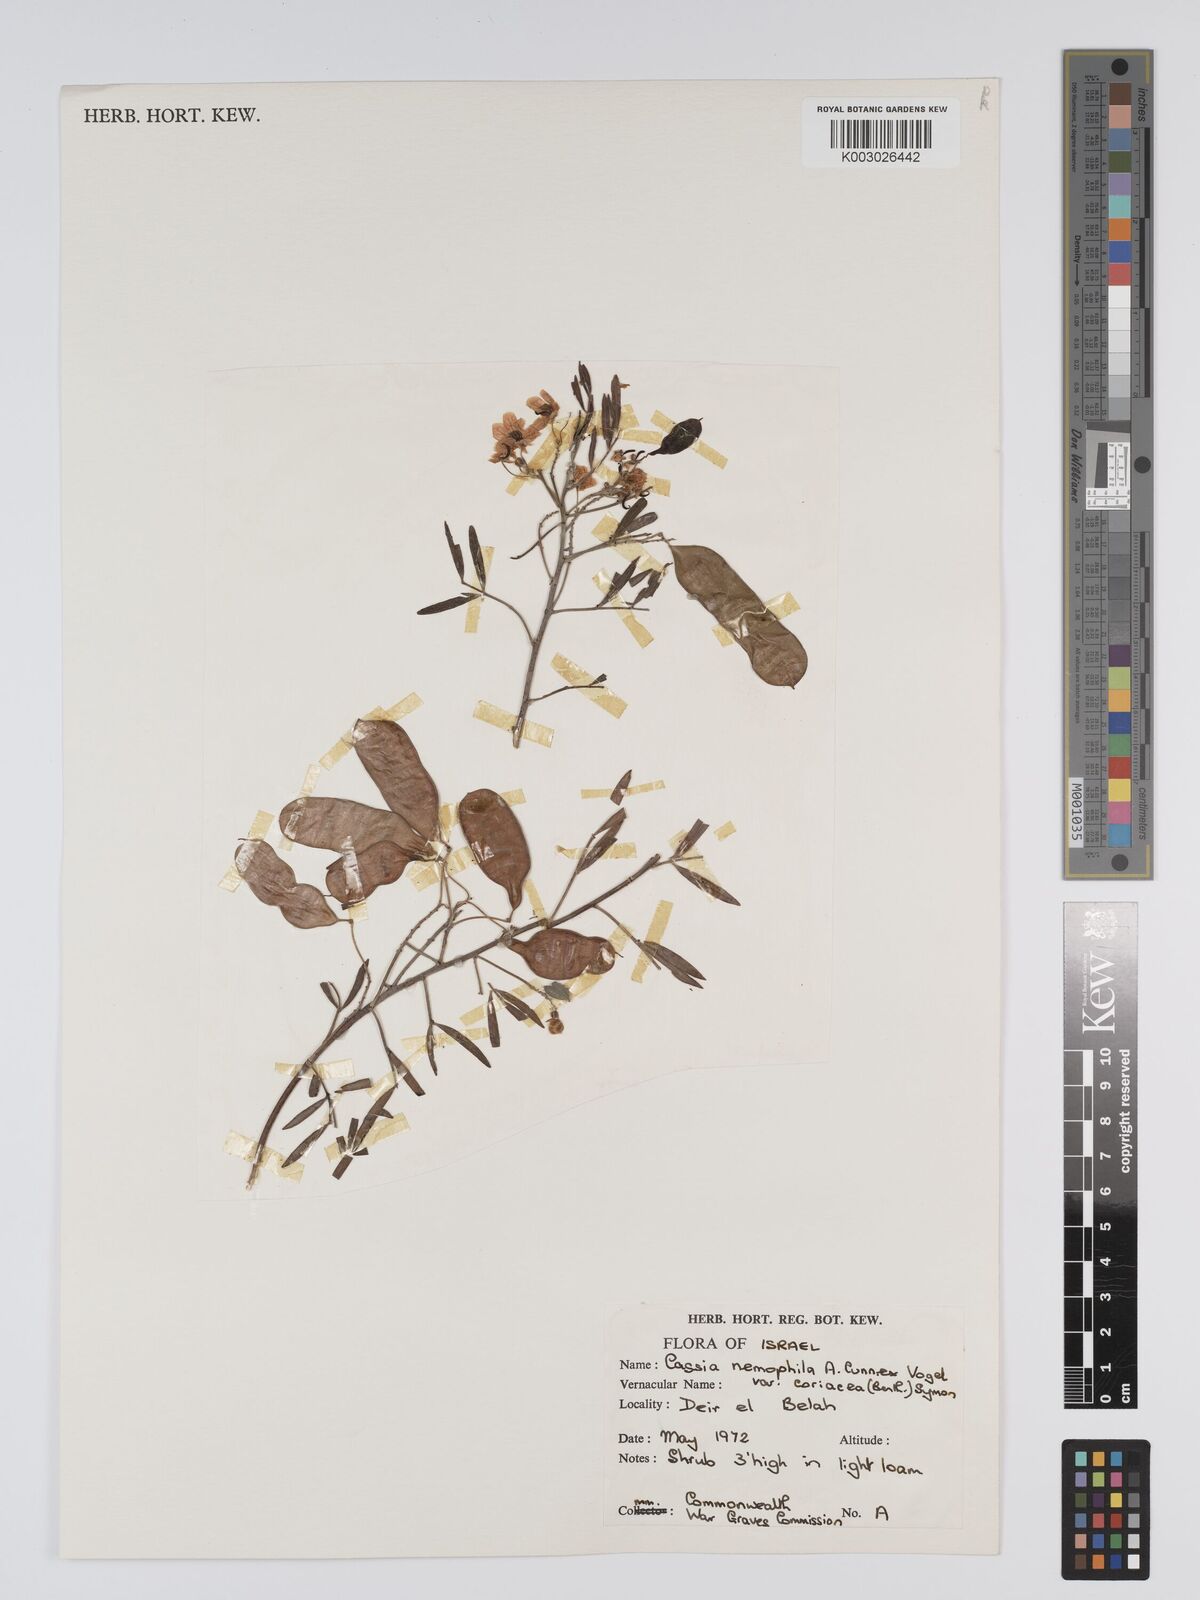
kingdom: Plantae
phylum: Tracheophyta
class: Magnoliopsida
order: Fabales
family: Fabaceae
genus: Chamaecrista
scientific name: Chamaecrista coriacea
